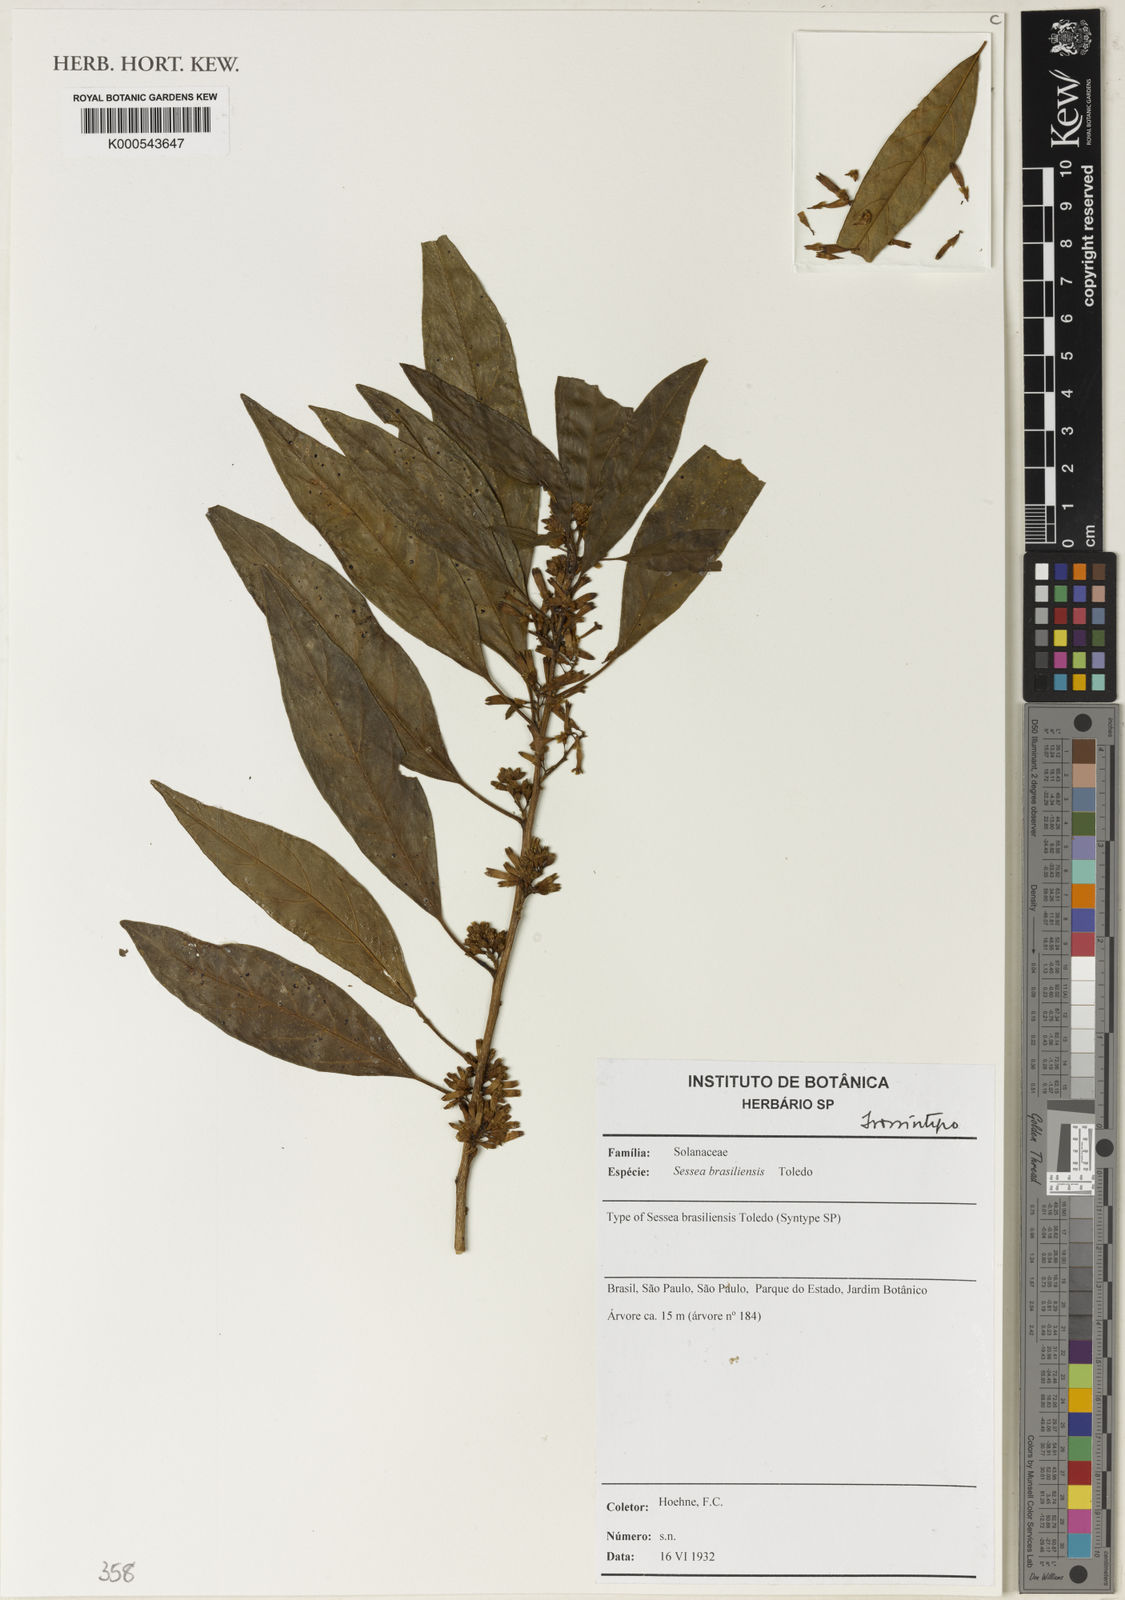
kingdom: Plantae
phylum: Tracheophyta
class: Magnoliopsida
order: Solanales
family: Solanaceae
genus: Cestrum
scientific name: Cestrum toledii
